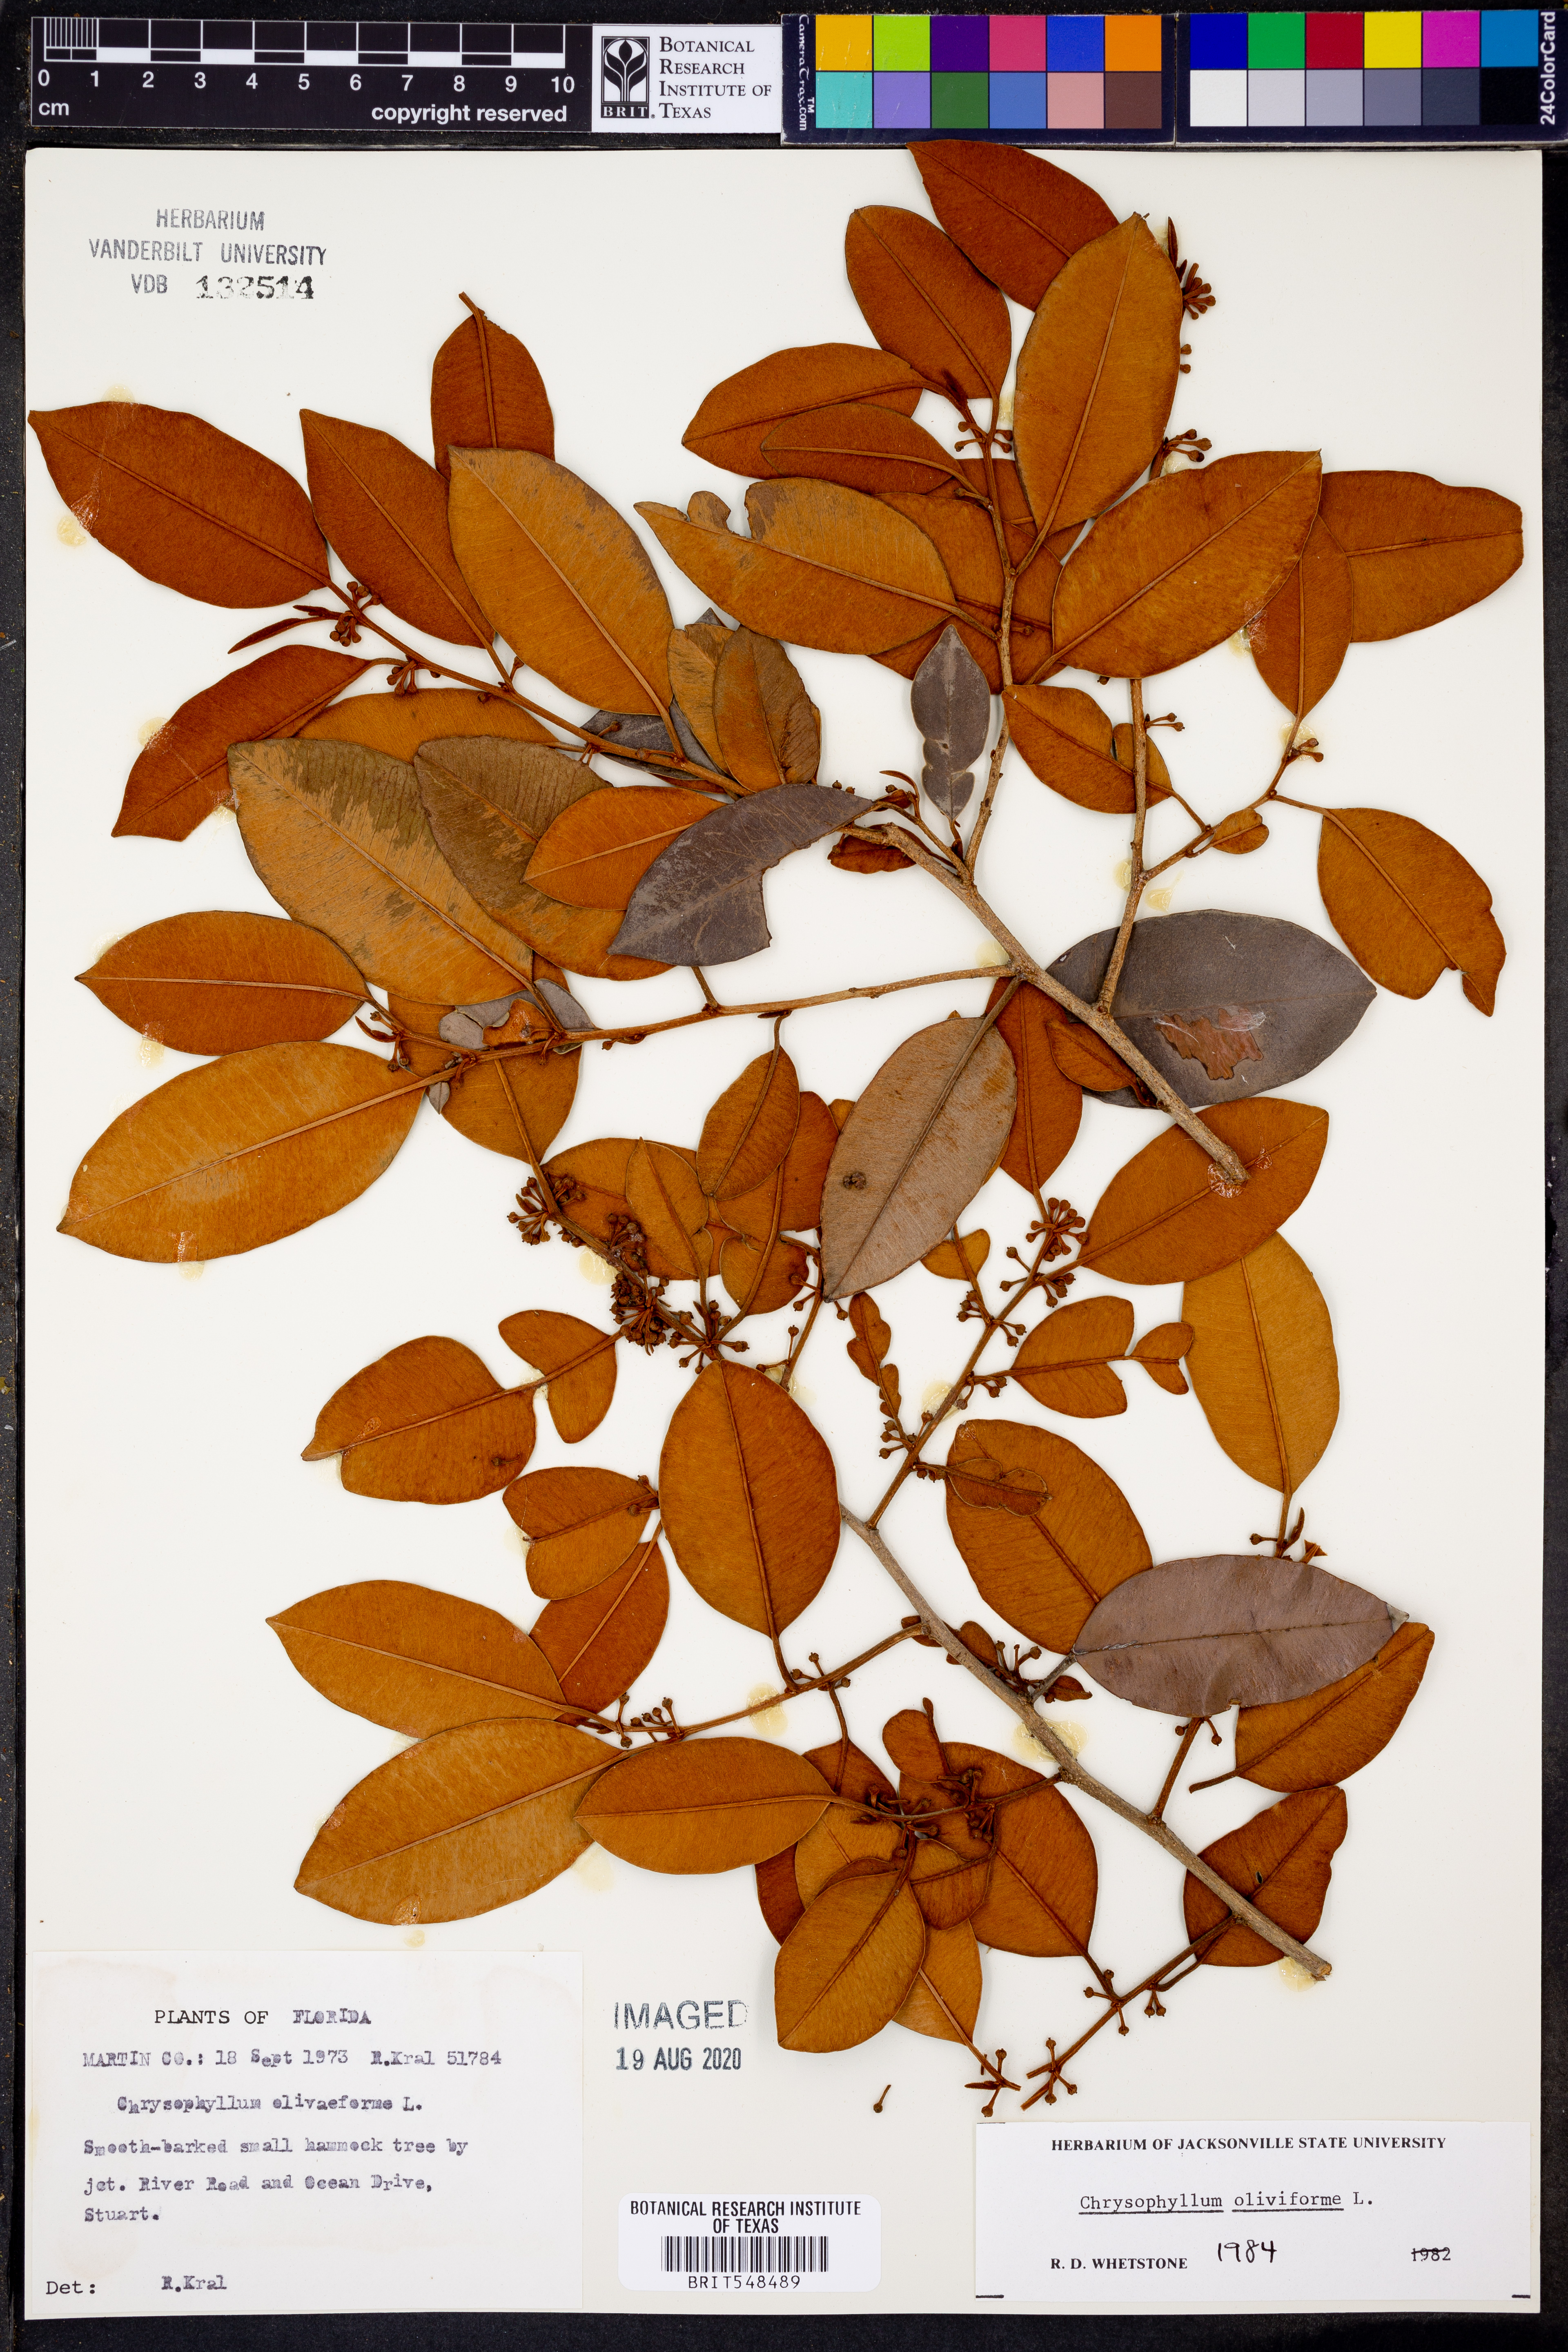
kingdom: Plantae
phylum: Tracheophyta
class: Magnoliopsida
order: Ericales
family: Sapotaceae
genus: Chrysophyllum
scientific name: Chrysophyllum oliviforme
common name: Satinleaf
